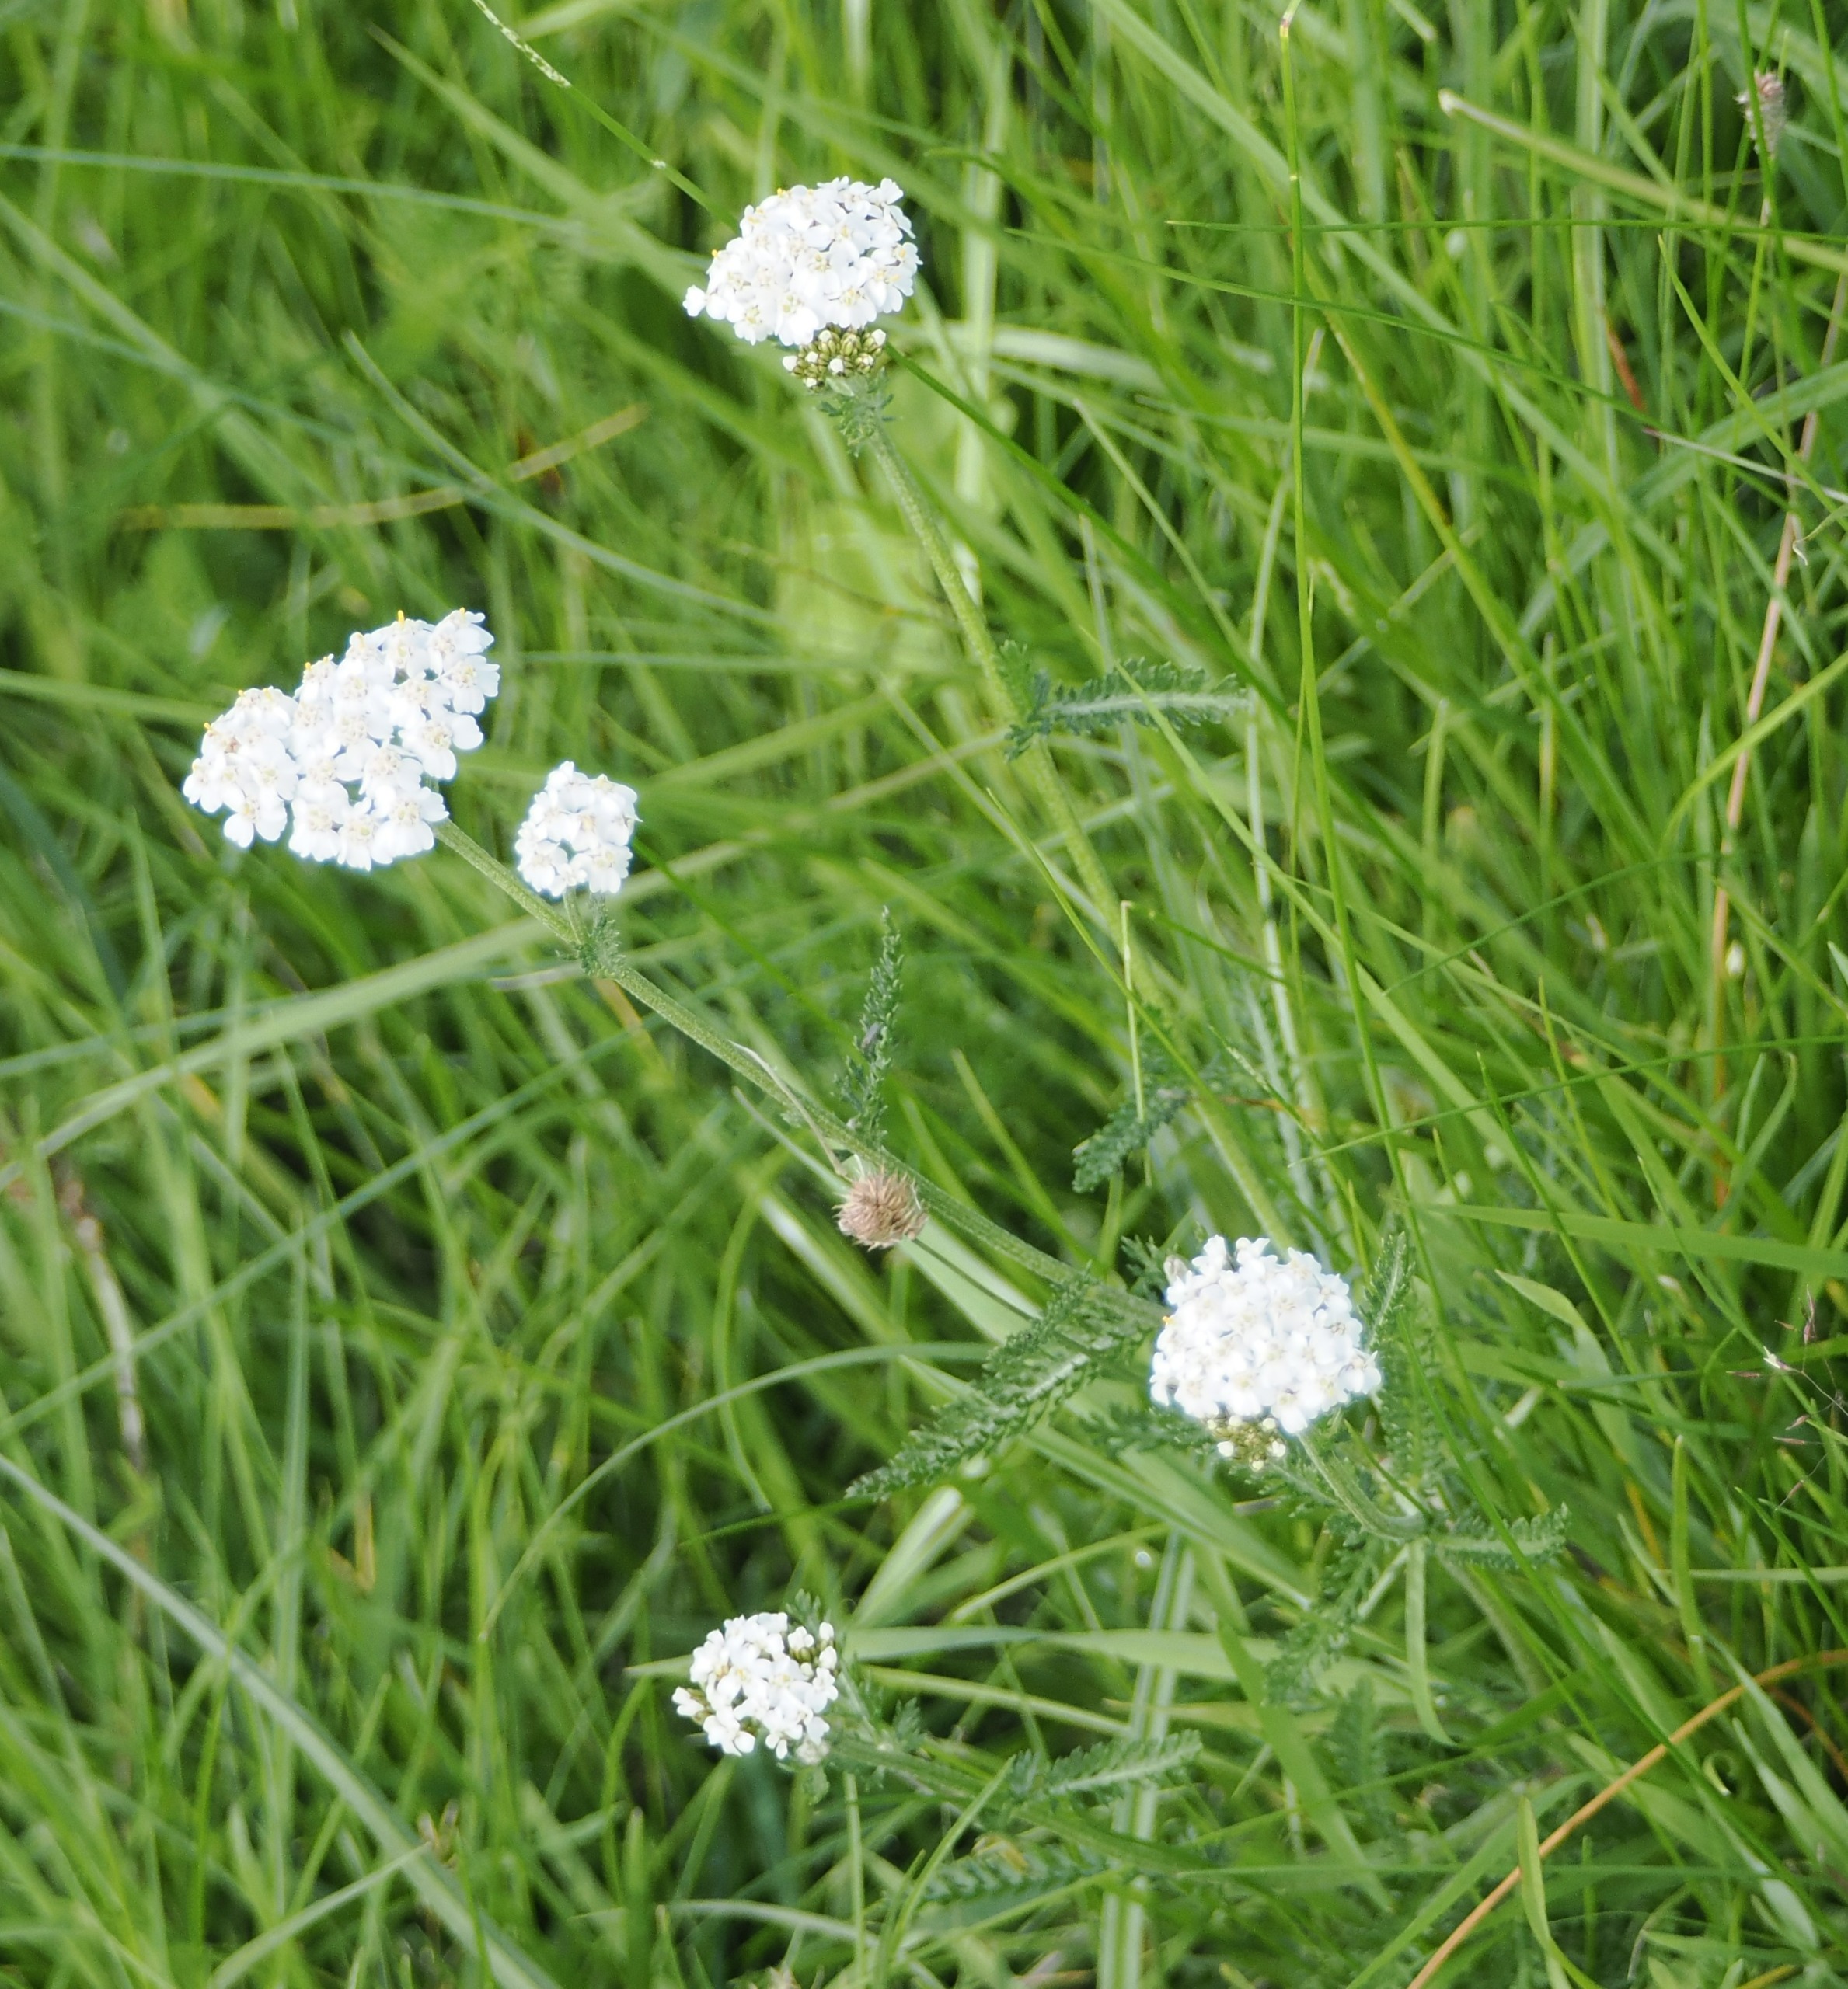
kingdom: Plantae
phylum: Tracheophyta
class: Magnoliopsida
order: Asterales
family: Asteraceae
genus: Achillea
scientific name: Achillea millefolium
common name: Almindelig røllike
